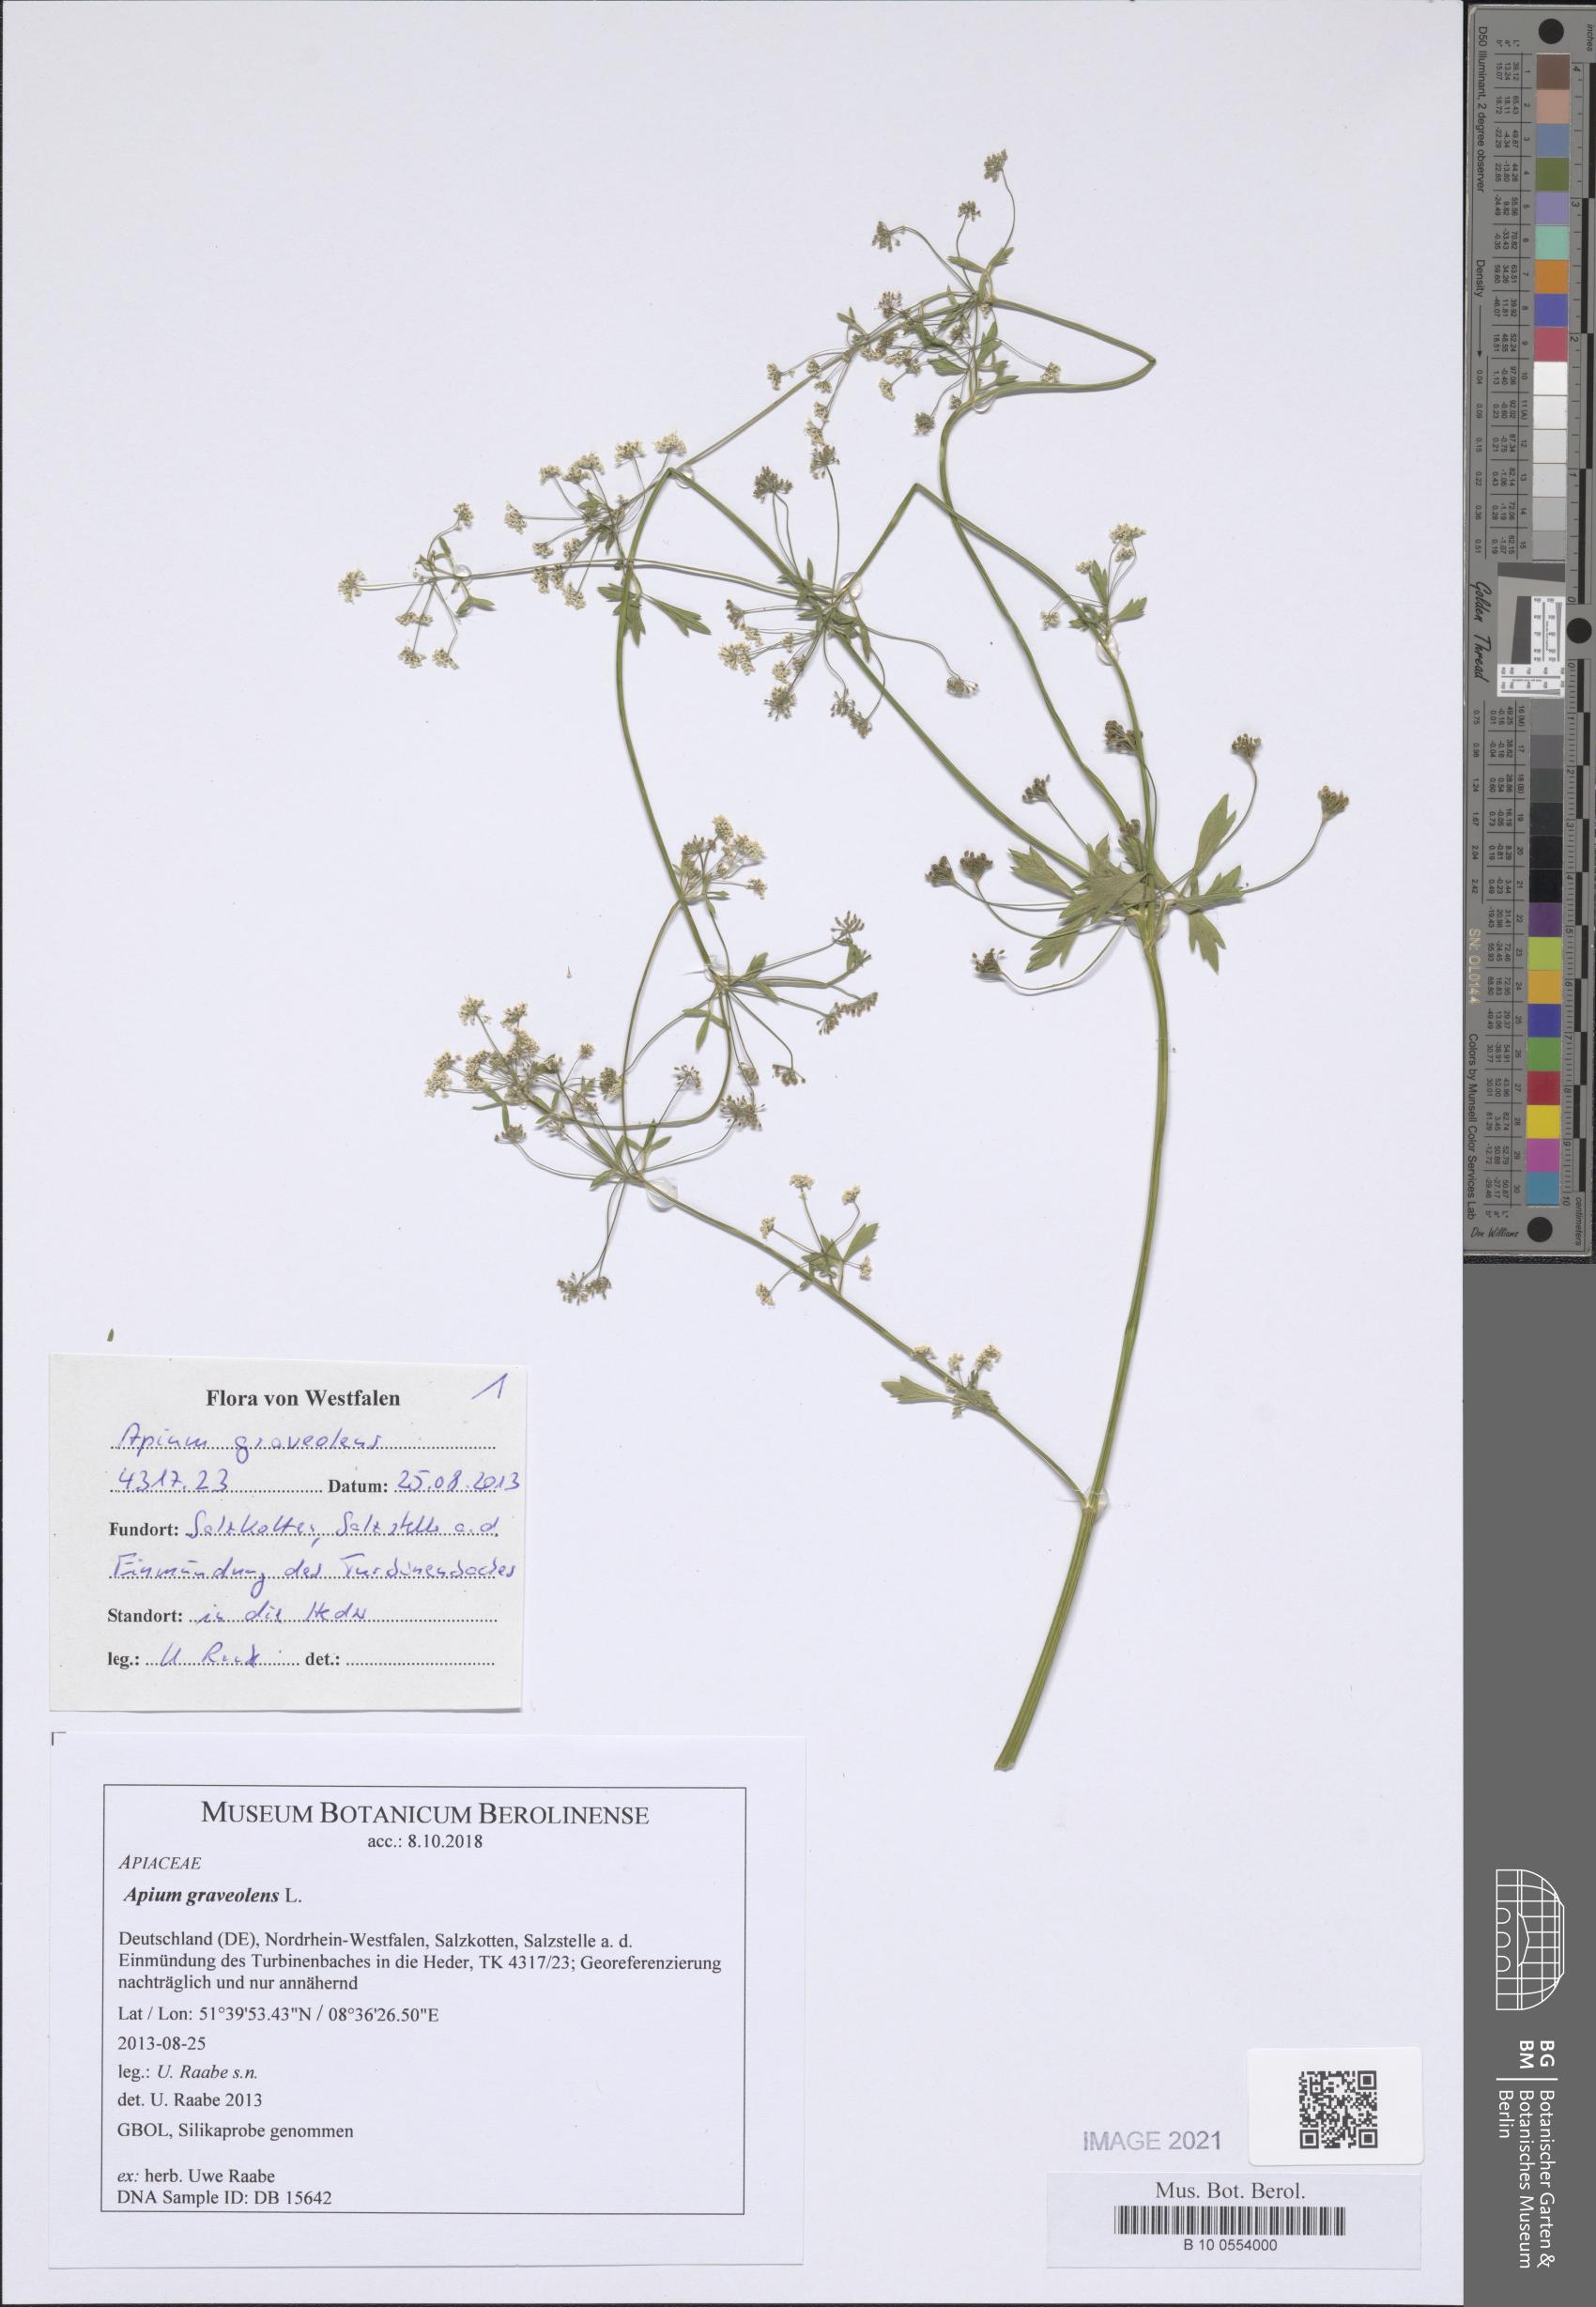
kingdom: Plantae
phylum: Tracheophyta
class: Magnoliopsida
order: Apiales
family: Apiaceae
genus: Apium
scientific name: Apium graveolens
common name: Wild celery
